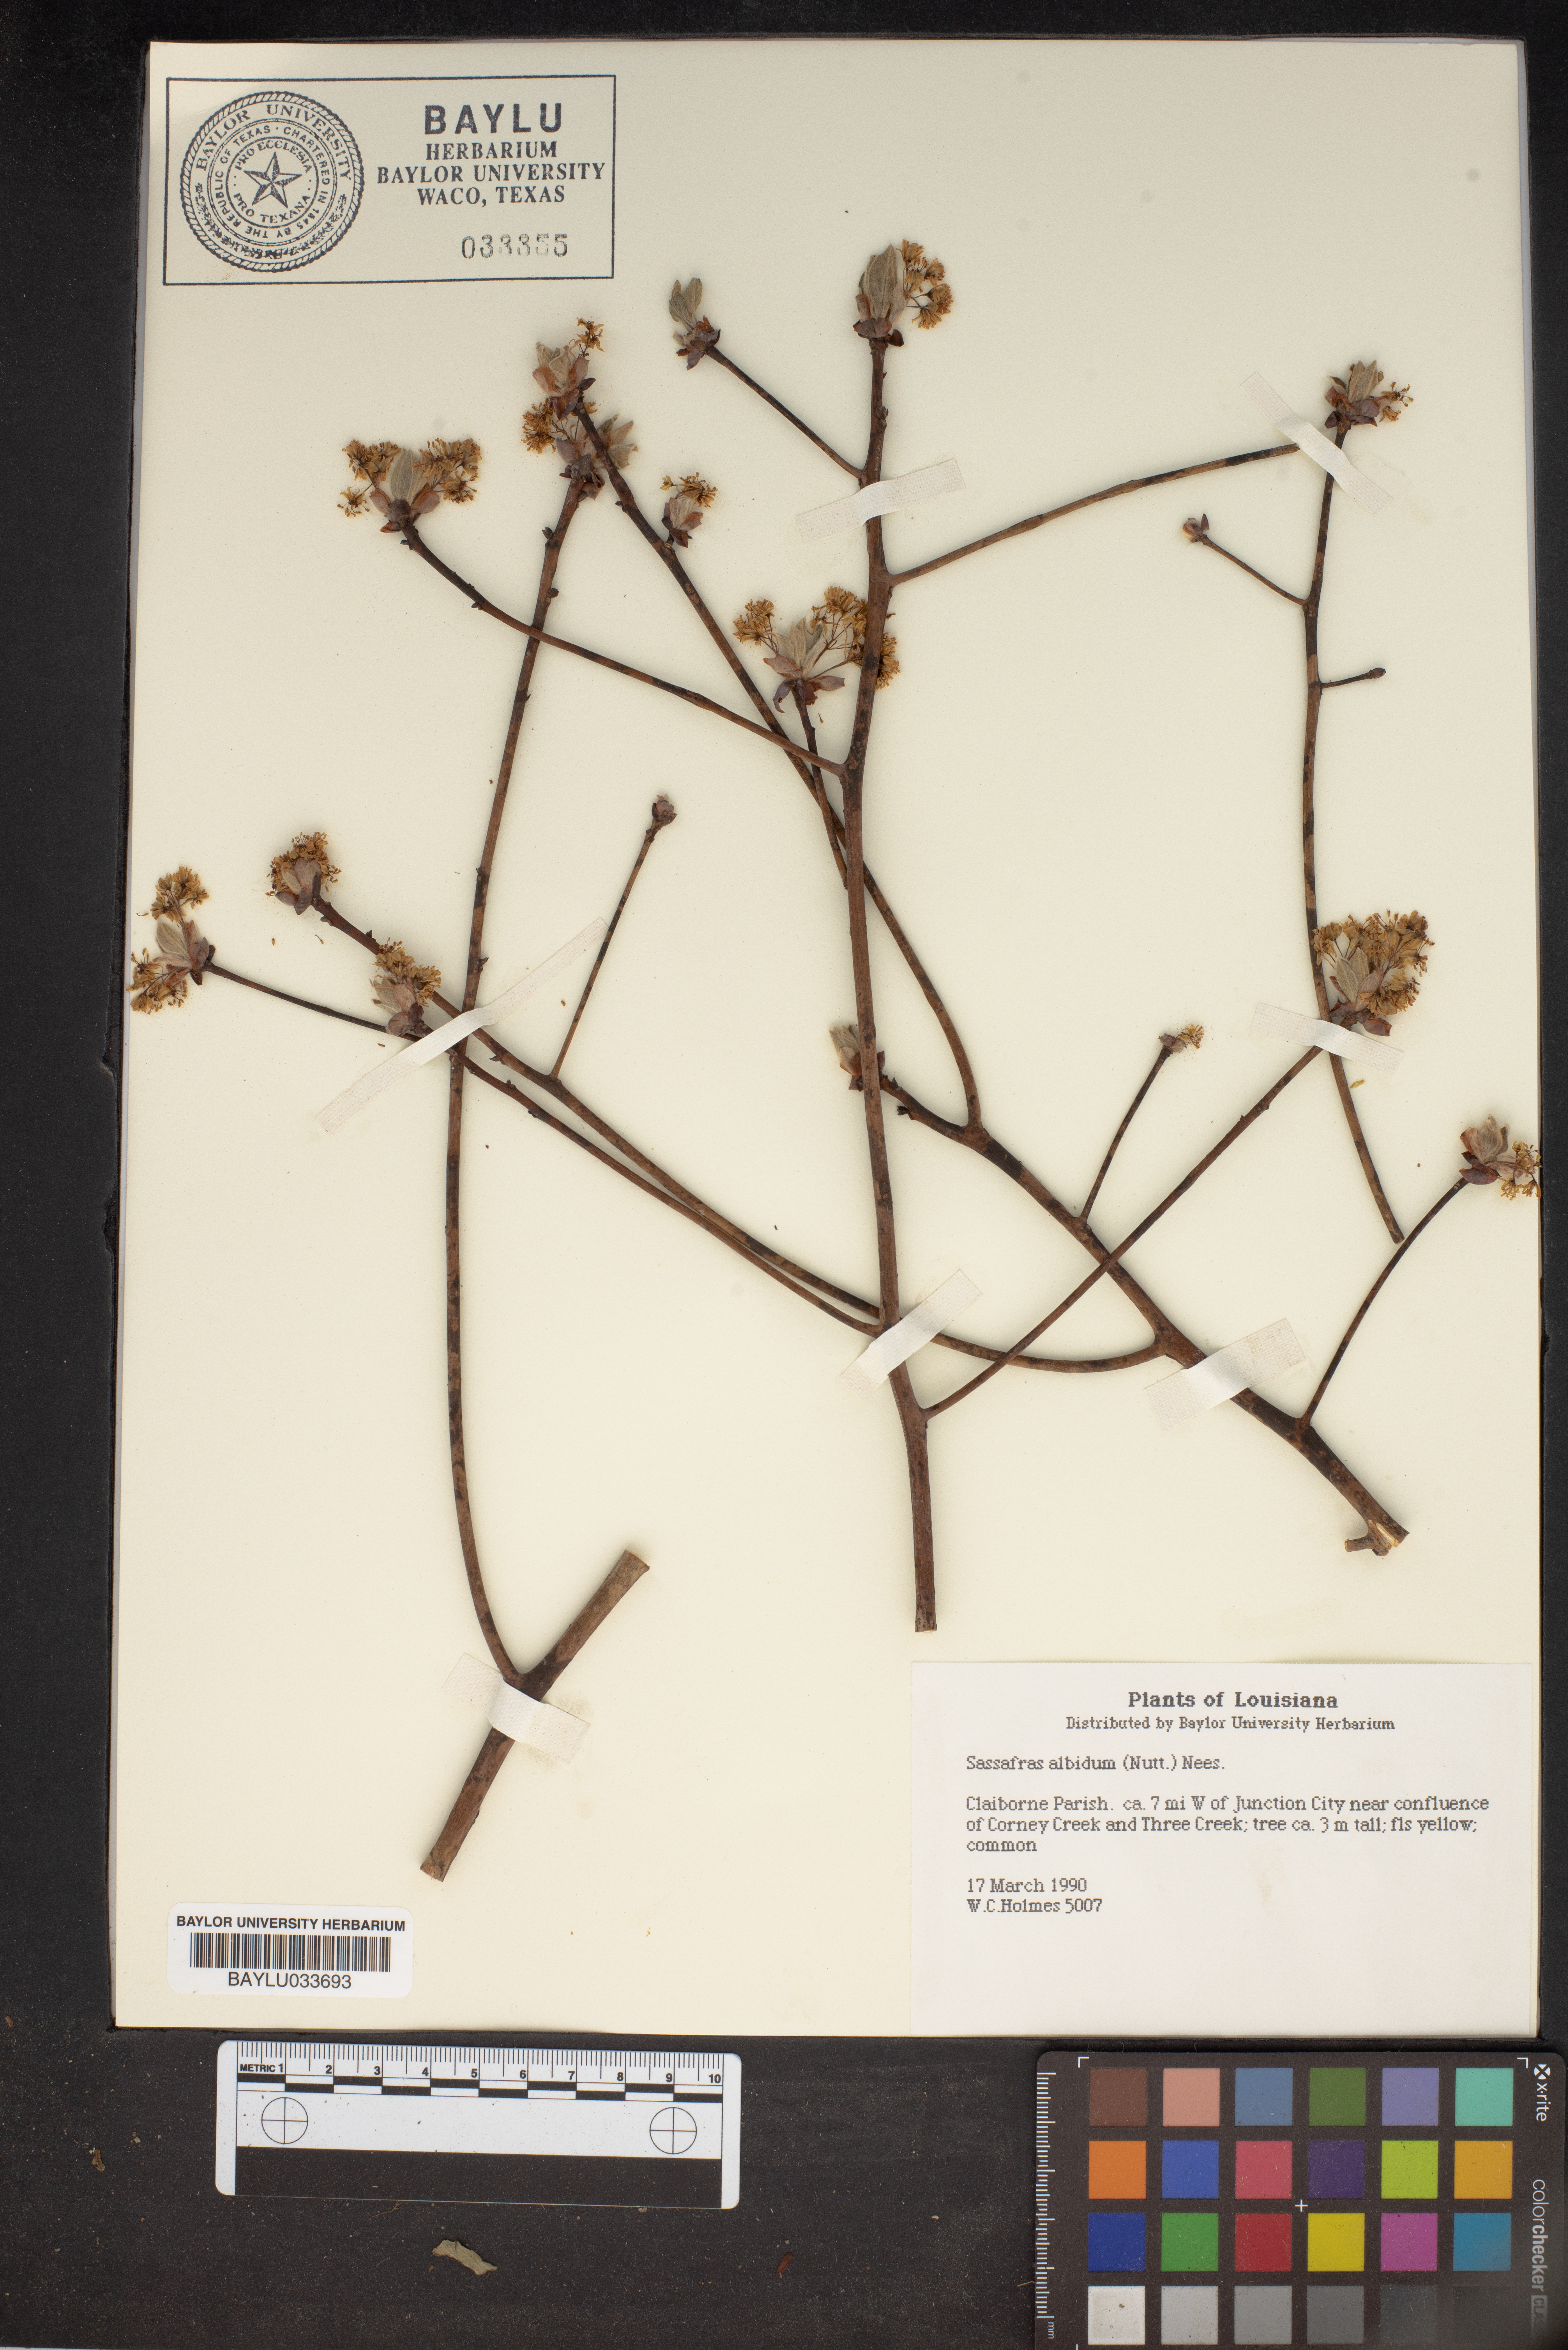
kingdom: Plantae
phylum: Tracheophyta
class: Magnoliopsida
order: Laurales
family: Lauraceae
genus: Sassafras
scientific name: Sassafras albidum
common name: Sassafras
